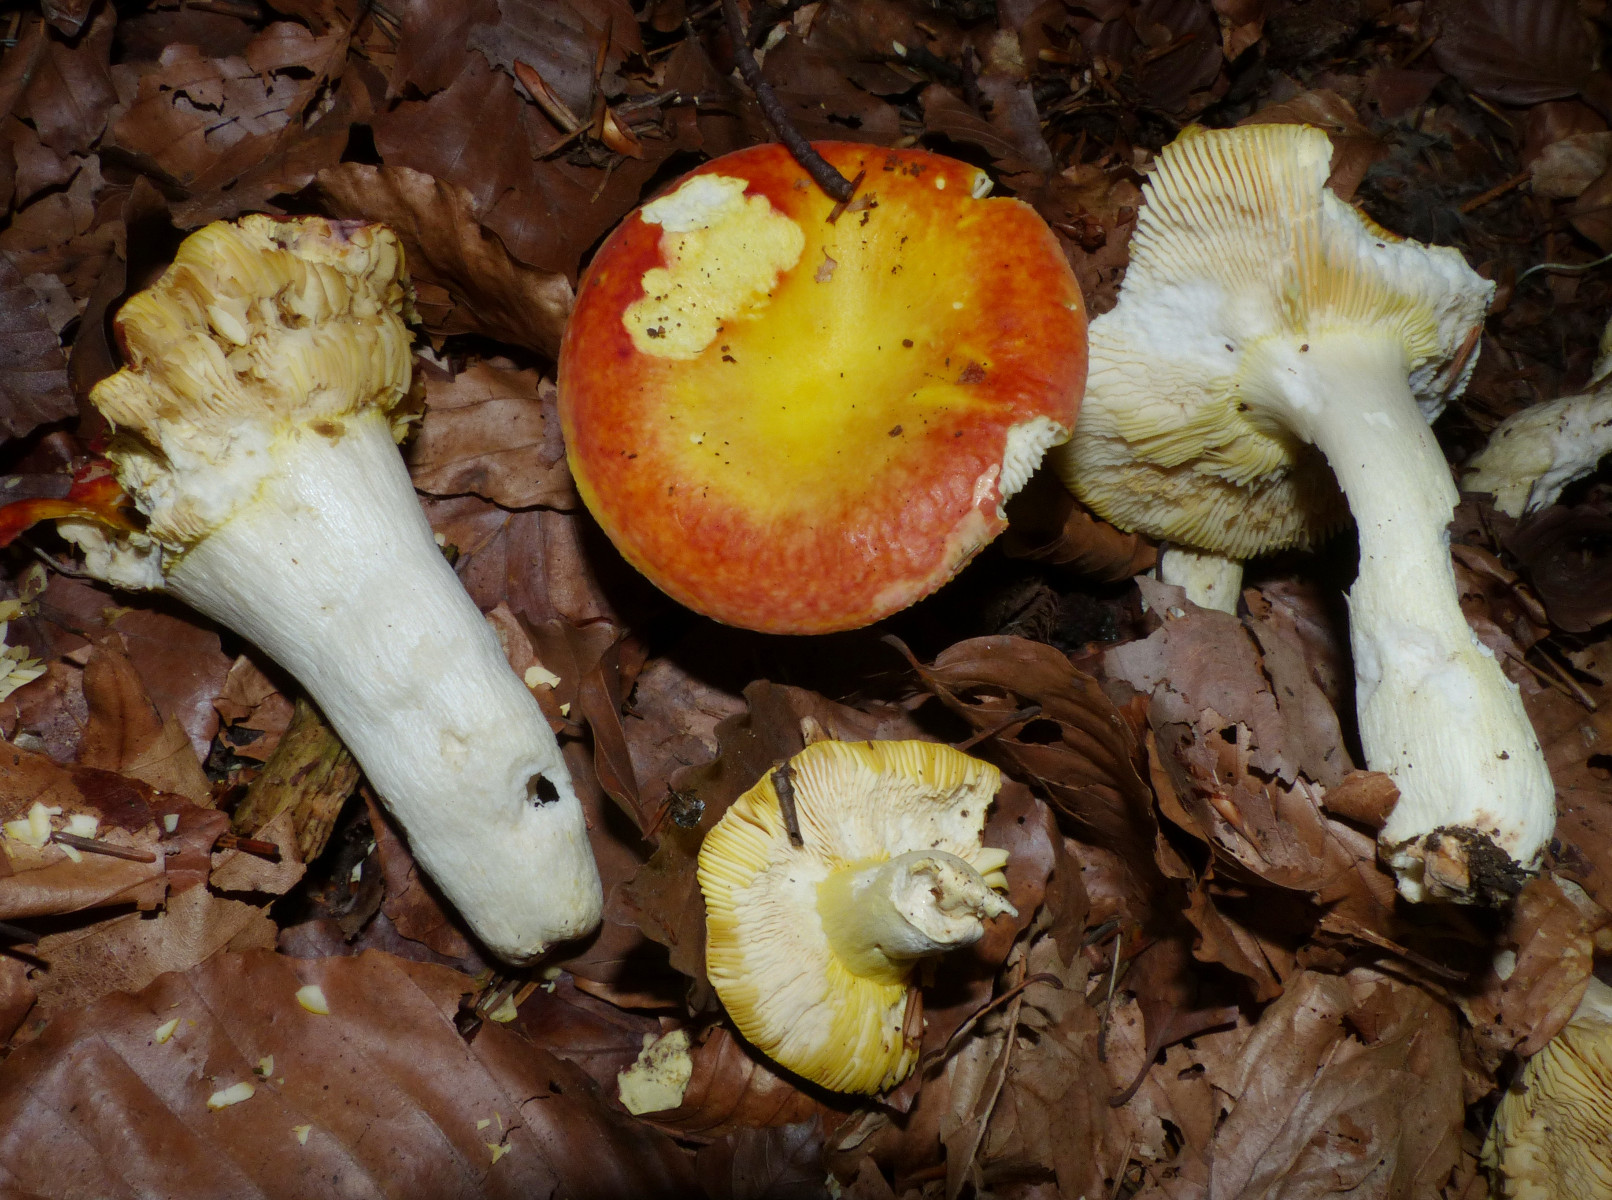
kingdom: Fungi
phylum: Basidiomycota
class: Agaricomycetes
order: Russulales
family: Russulaceae
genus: Russula
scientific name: Russula aurea
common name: gylden skørhat
